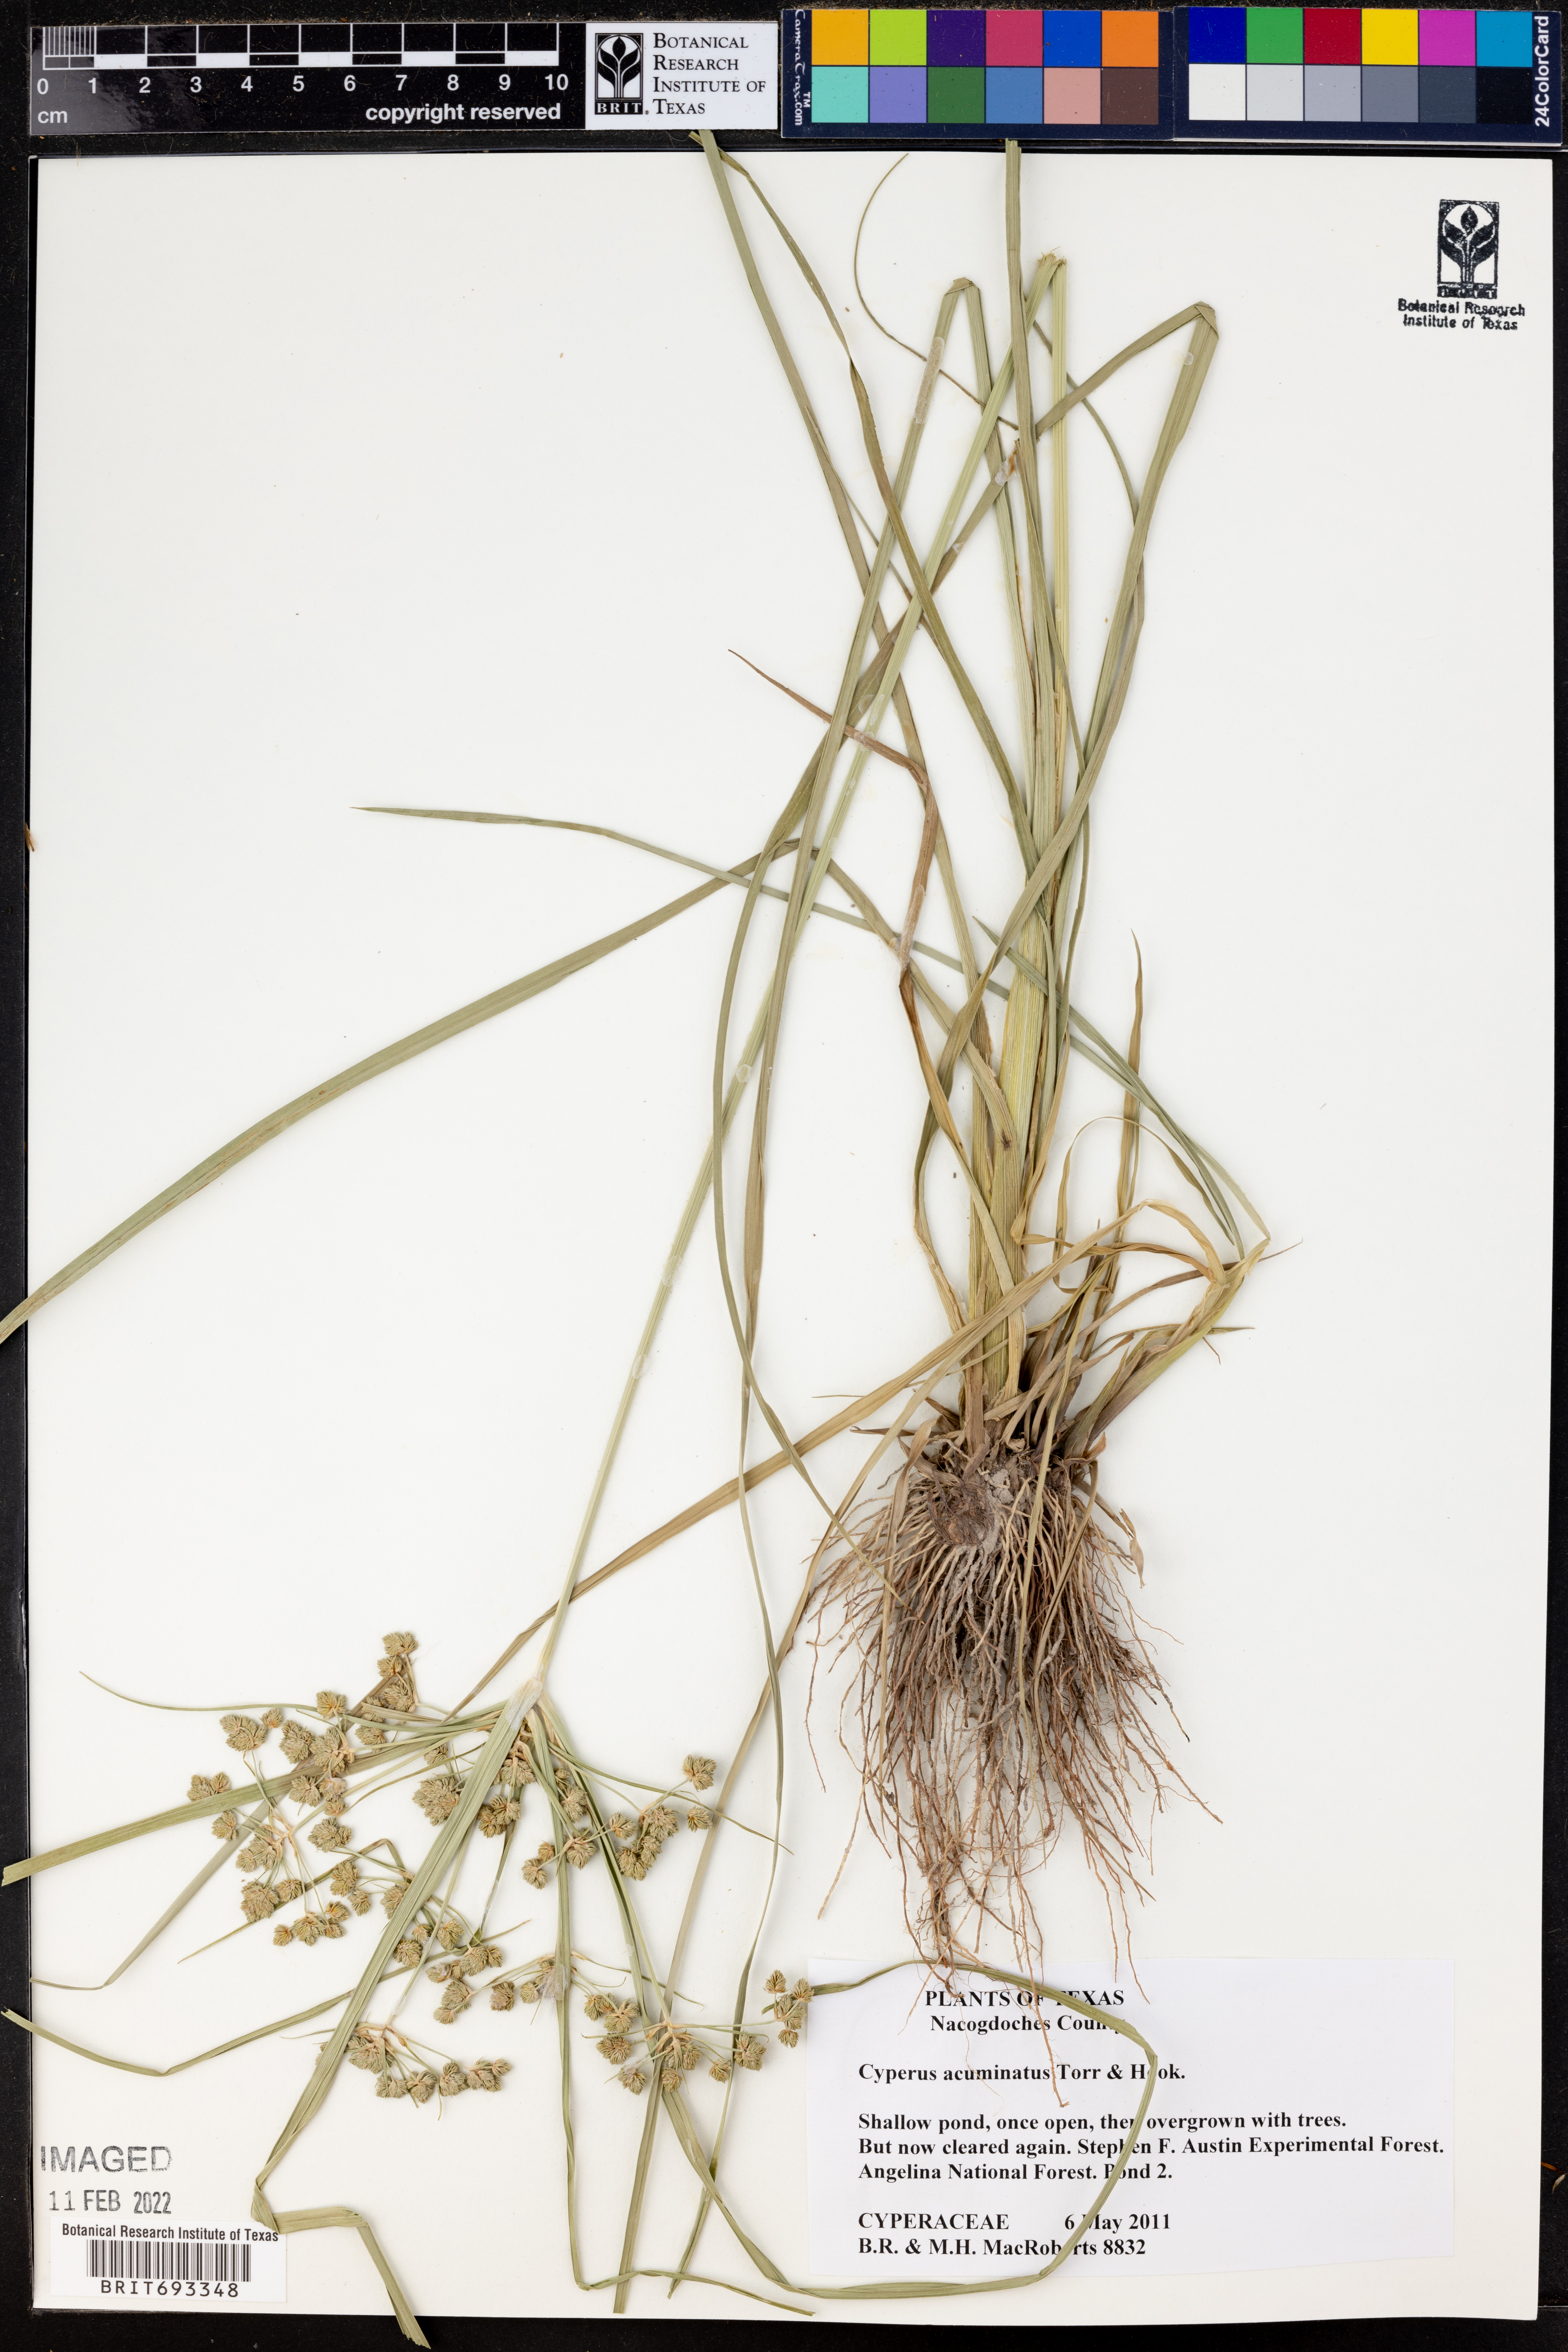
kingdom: Plantae
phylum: Tracheophyta
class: Liliopsida
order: Poales
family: Cyperaceae
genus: Cyperus
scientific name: Cyperus acuminatus
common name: Short-pointed cyperus
